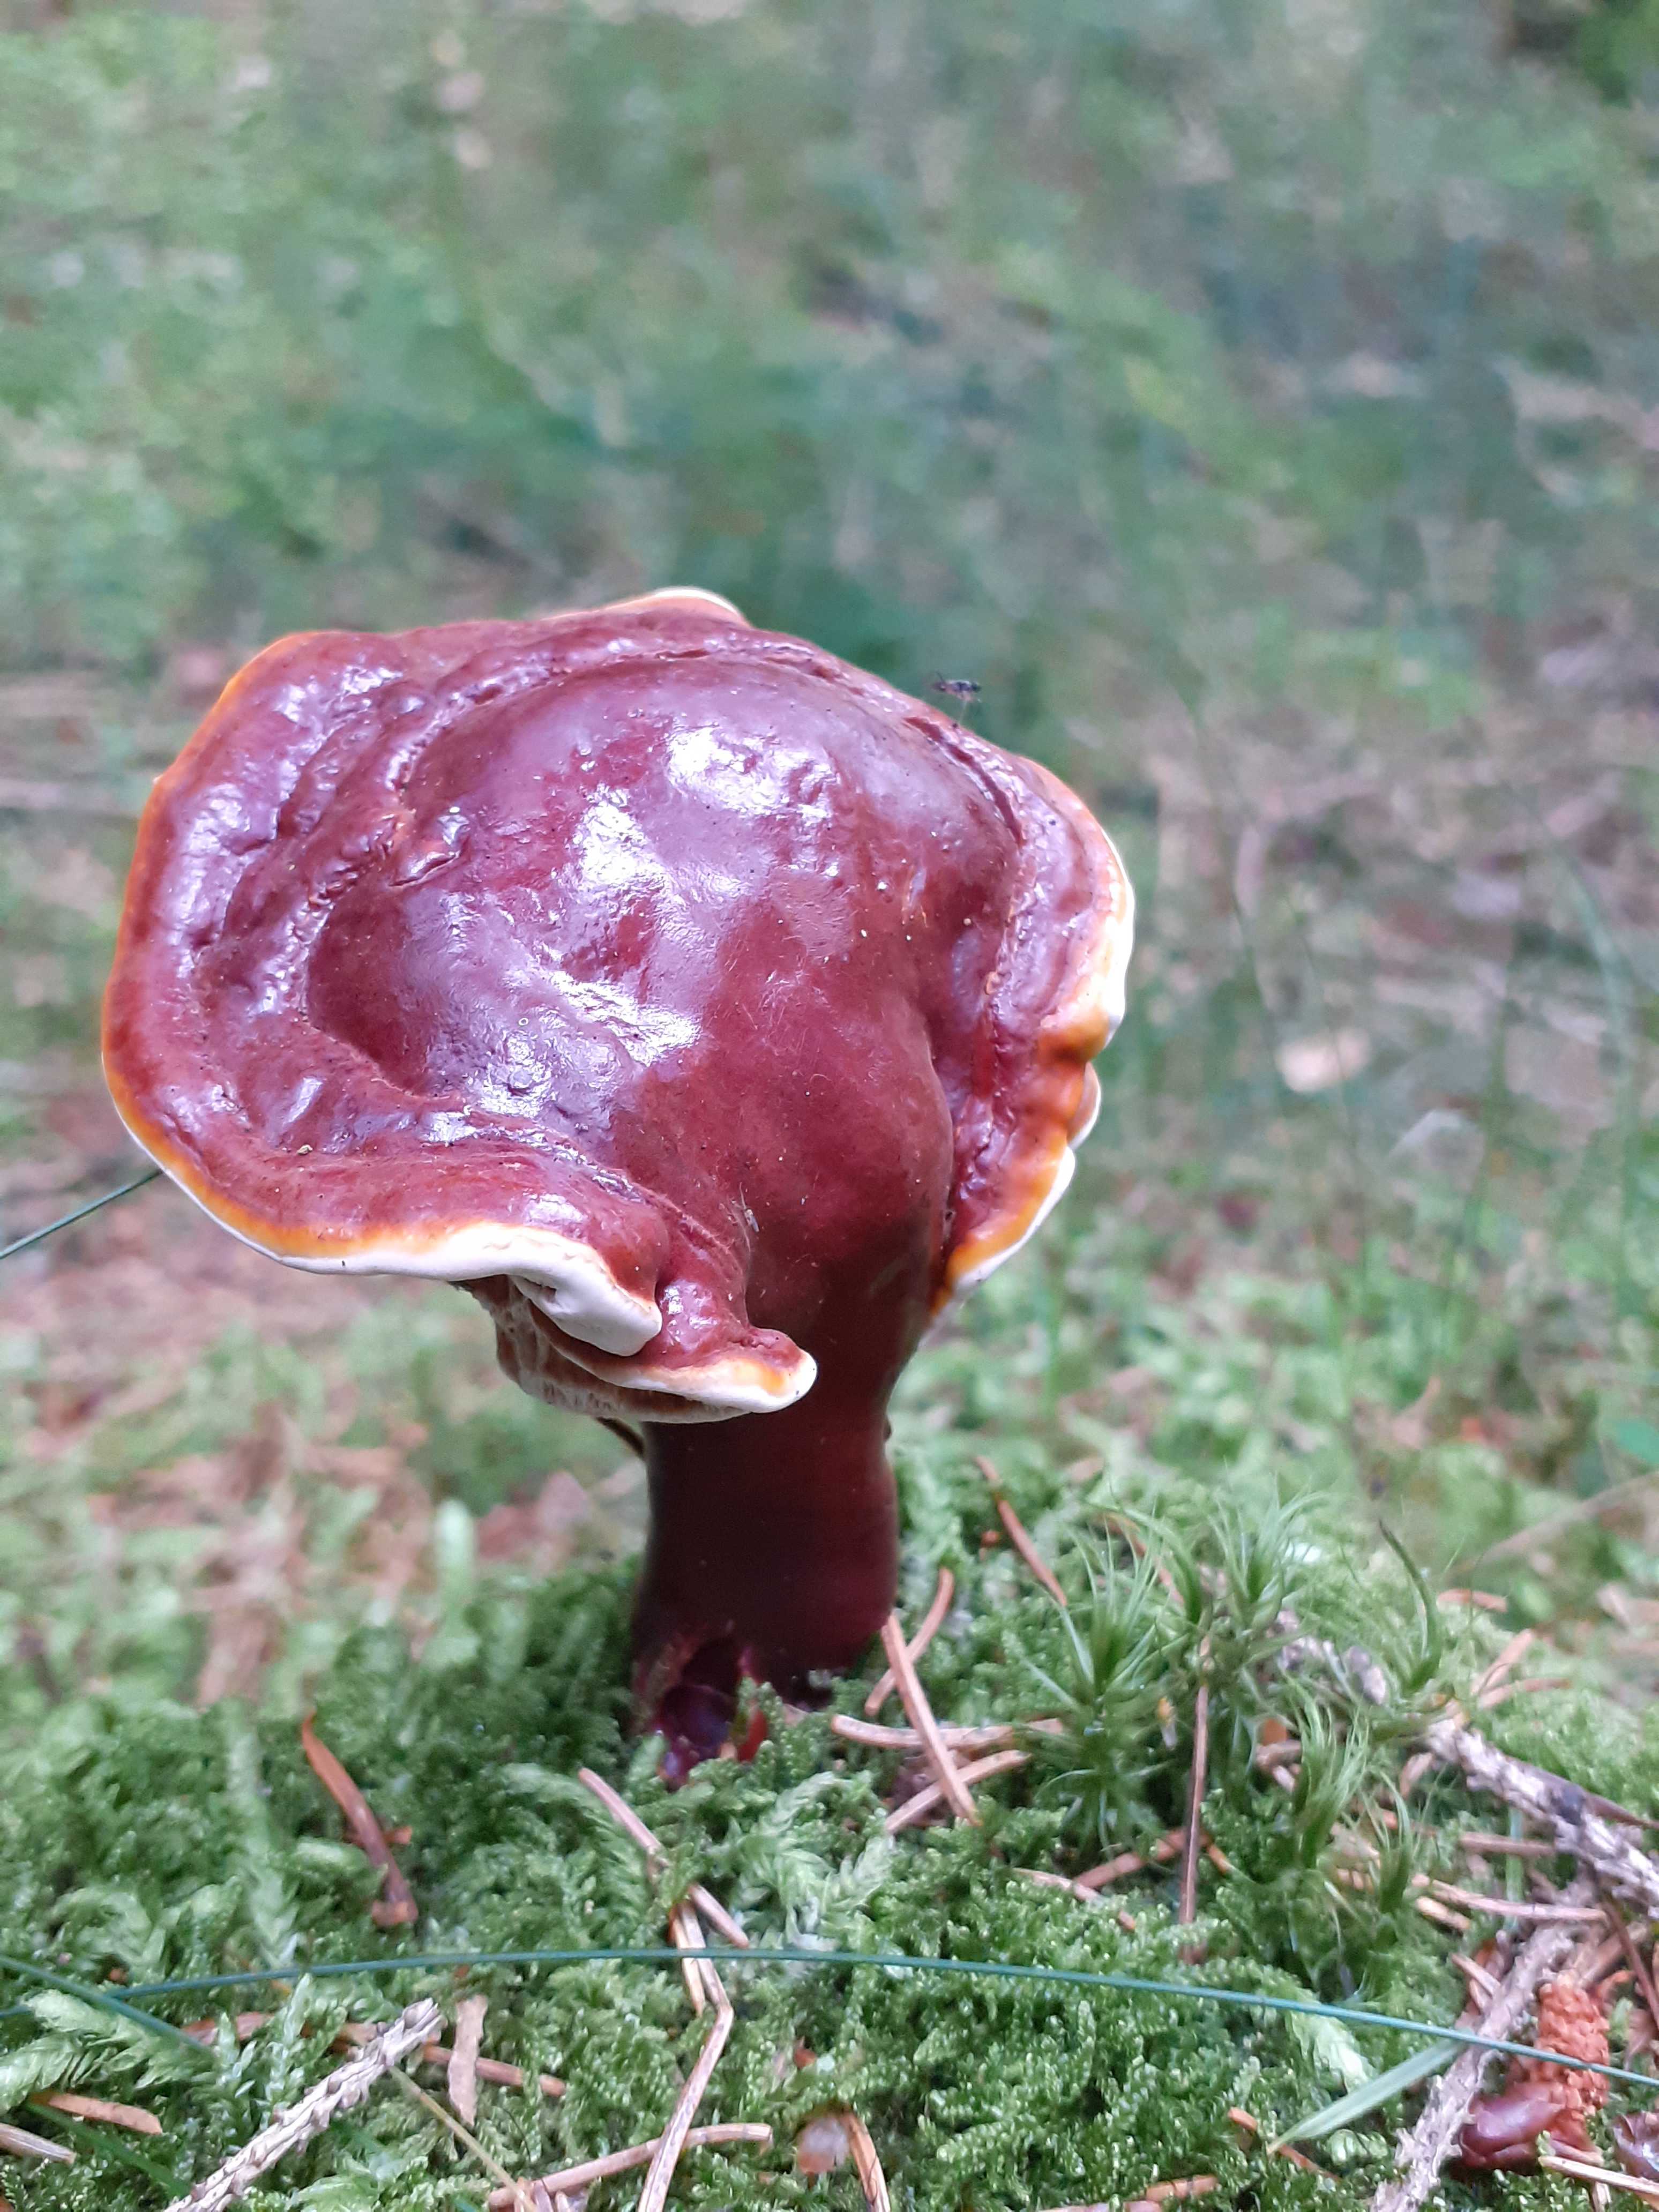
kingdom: Fungi
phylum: Basidiomycota
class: Agaricomycetes
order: Polyporales
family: Polyporaceae
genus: Ganoderma
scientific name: Ganoderma lucidum
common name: skinnende lakporesvamp
